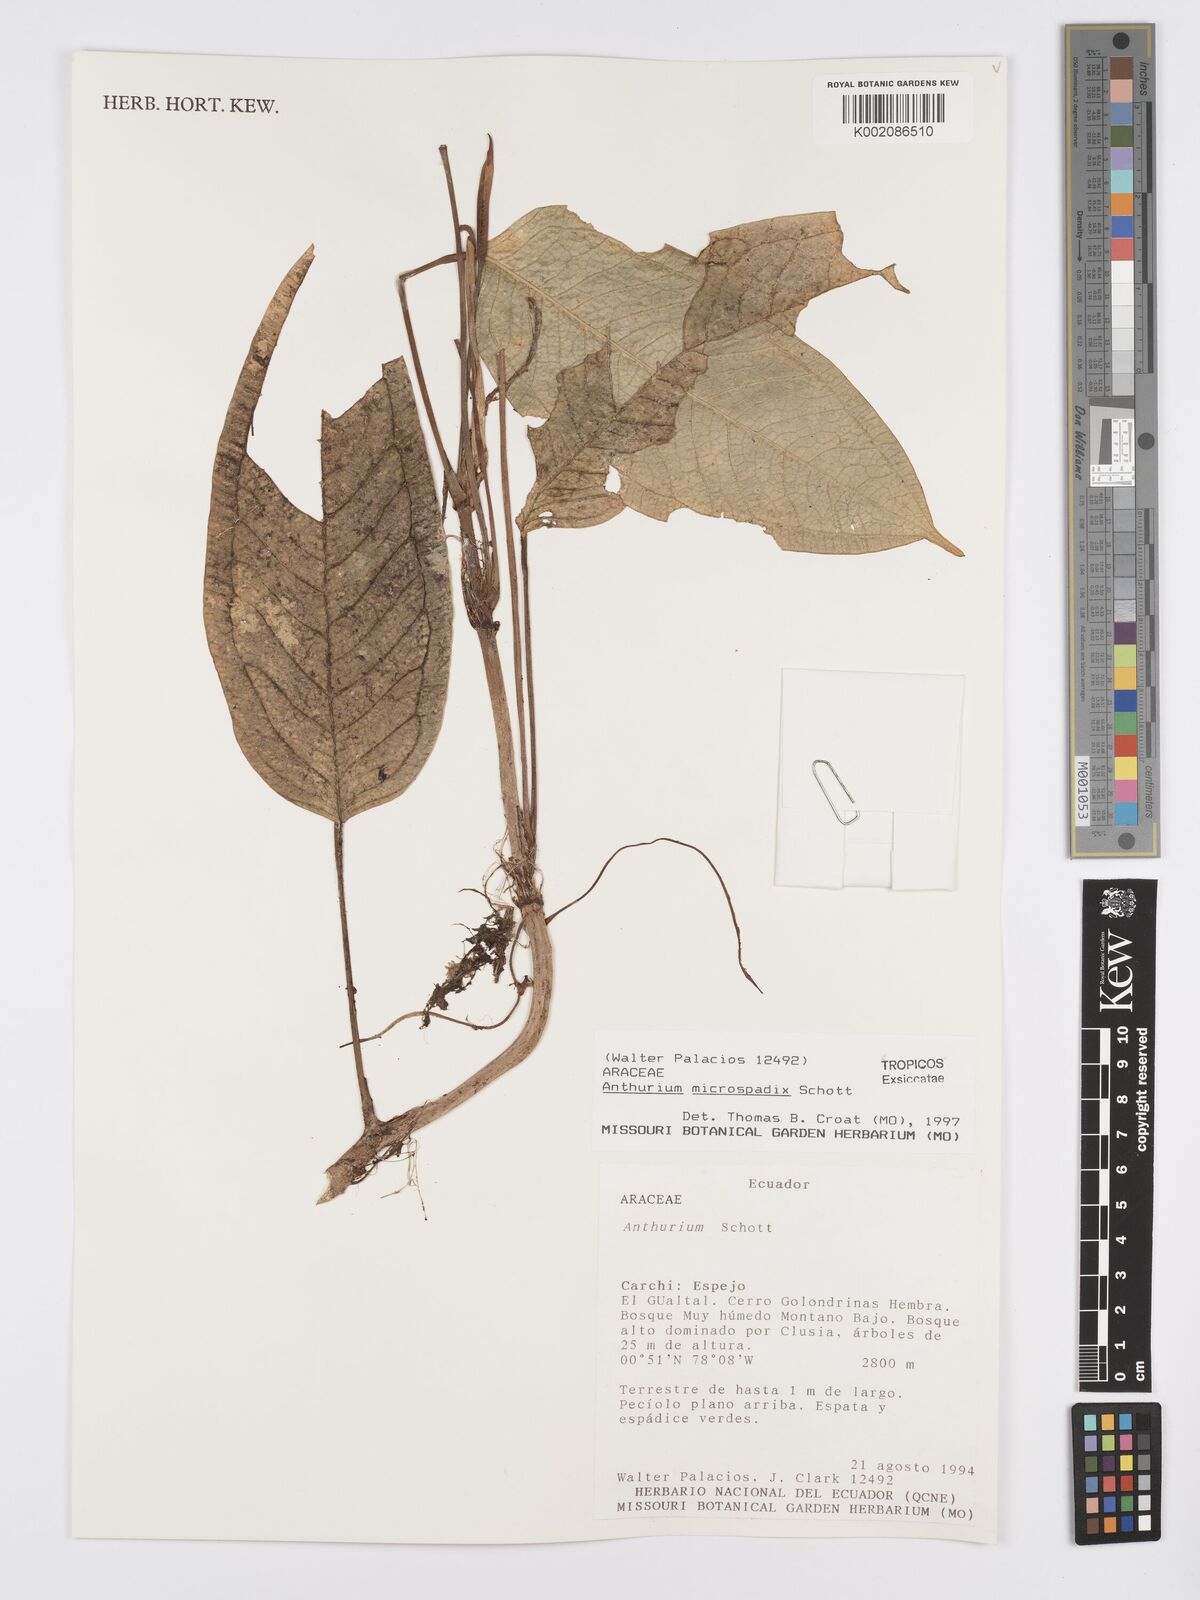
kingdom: Plantae
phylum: Tracheophyta
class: Liliopsida
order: Alismatales
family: Araceae
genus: Anthurium
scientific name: Anthurium microspadix
